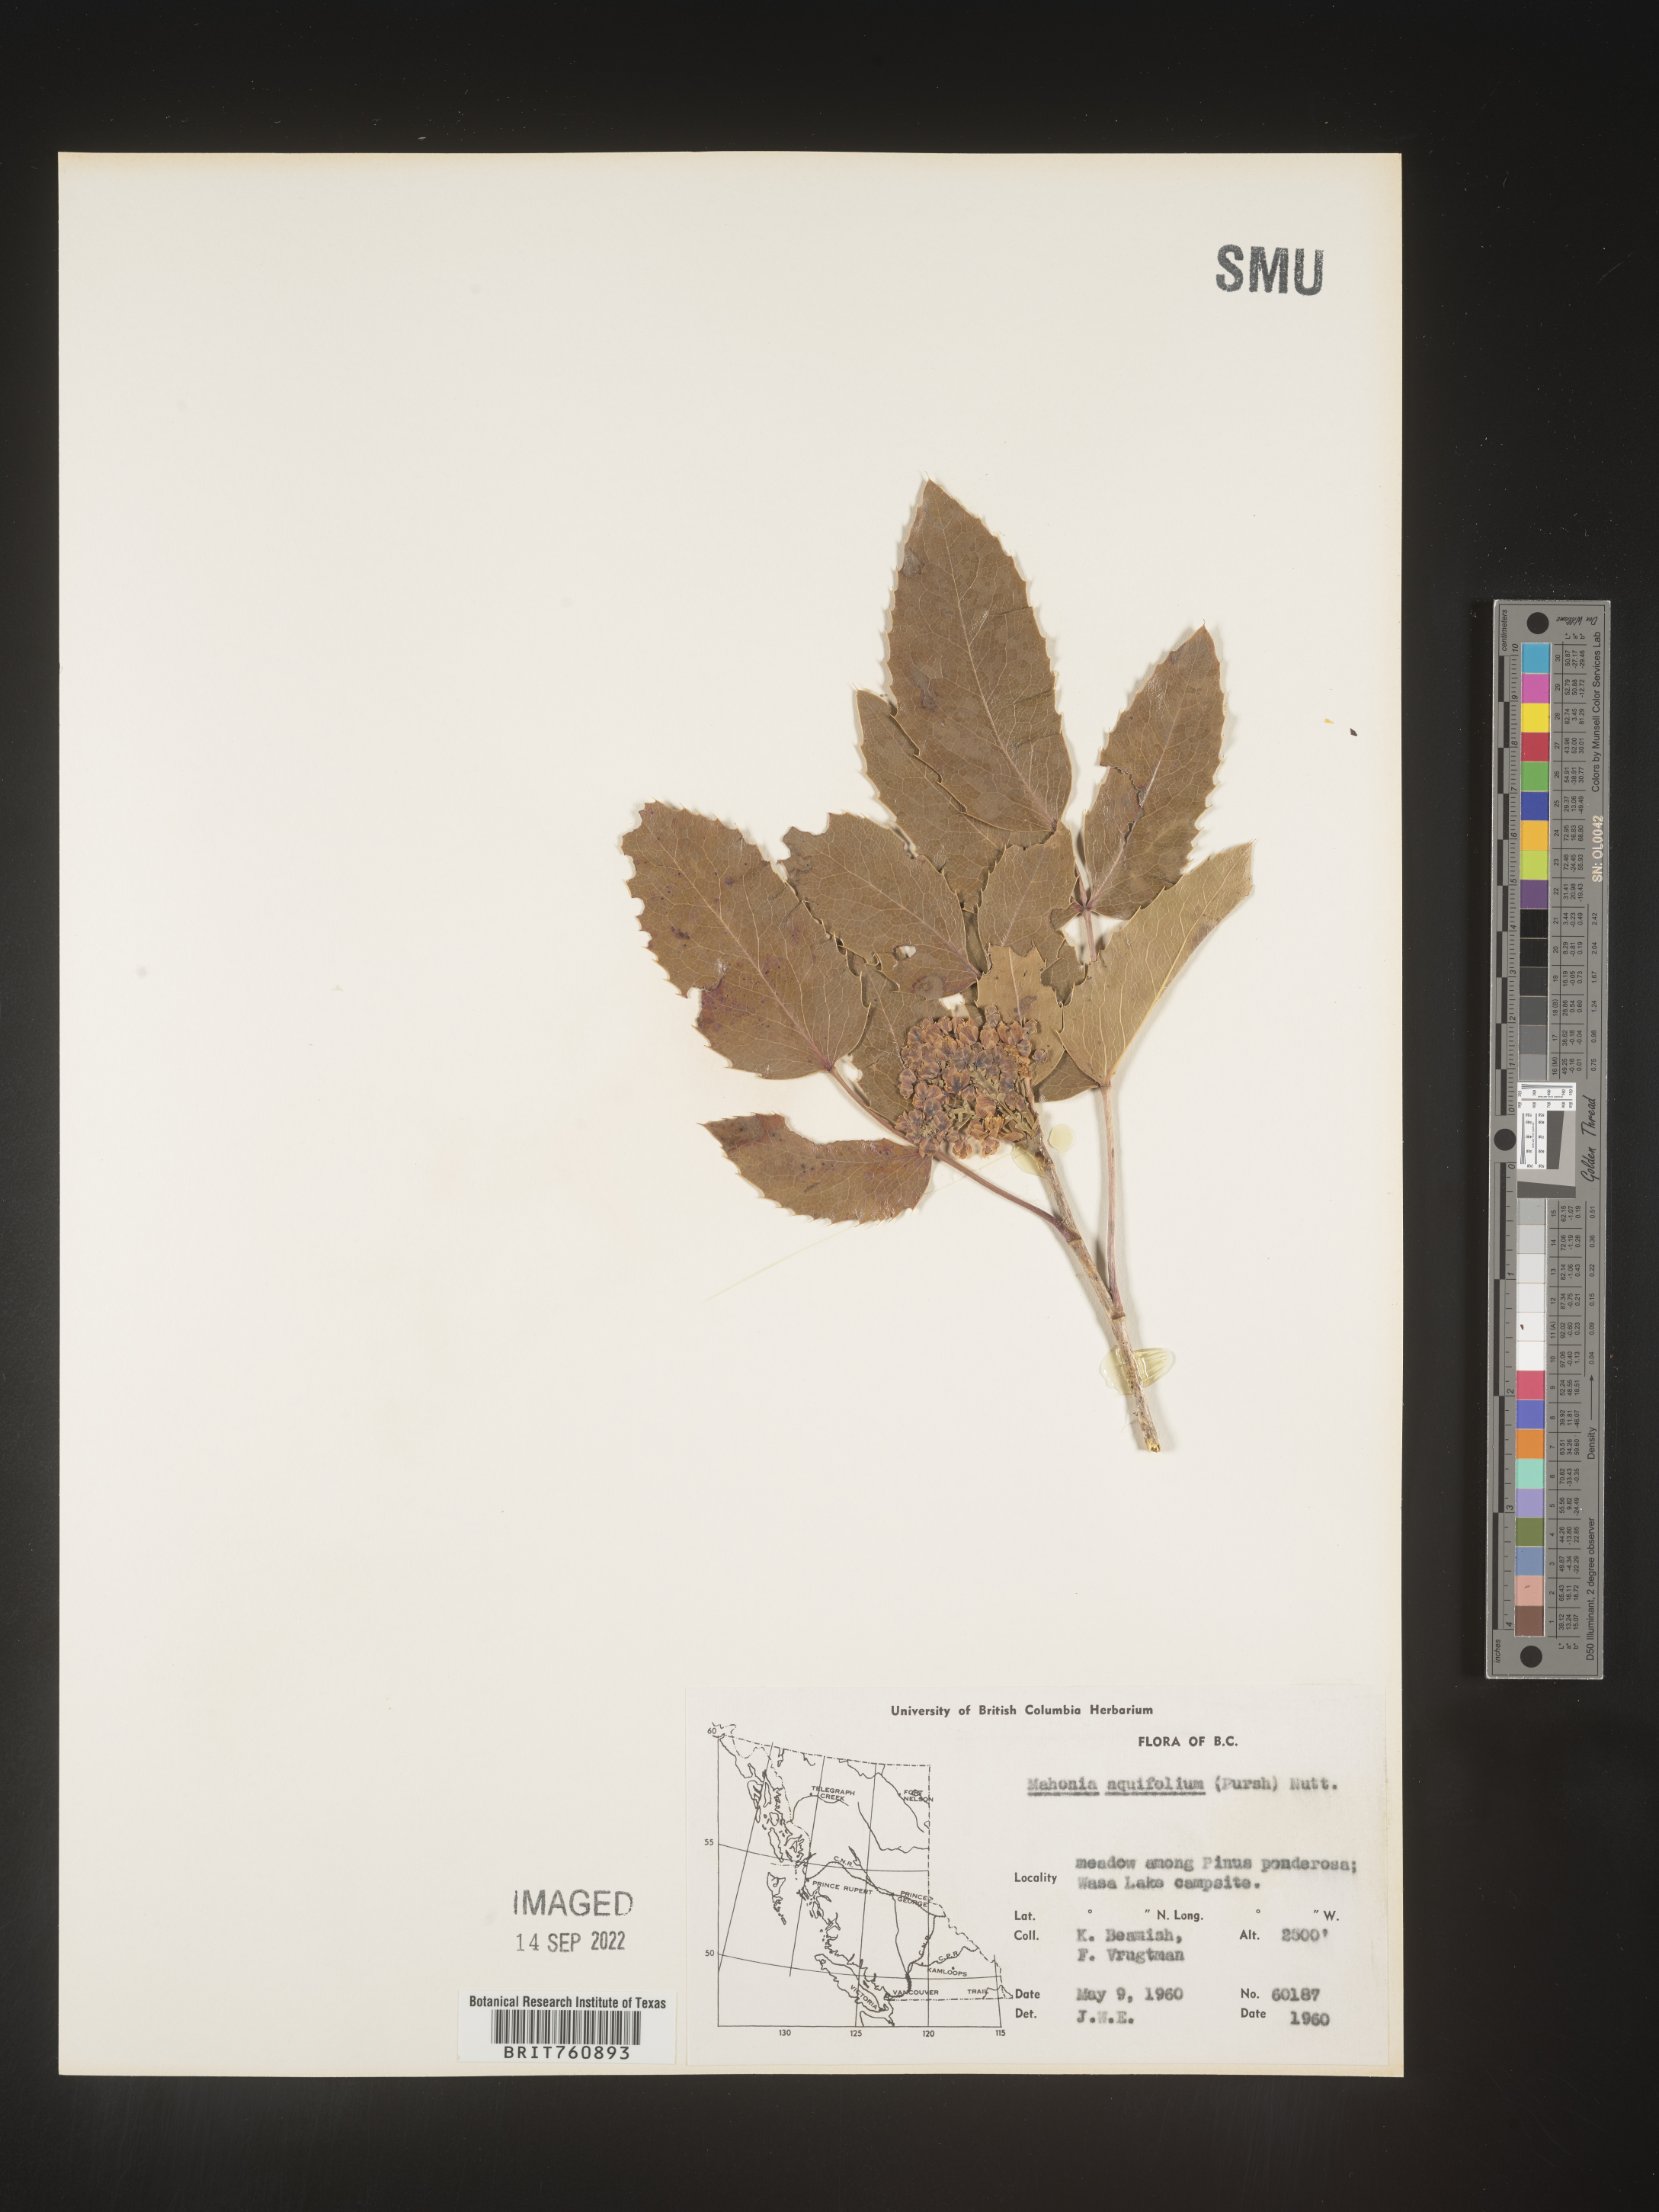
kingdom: Plantae
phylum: Tracheophyta
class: Magnoliopsida
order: Ranunculales
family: Berberidaceae
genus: Mahonia
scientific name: Mahonia aquifolium
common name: Oregon-grape
